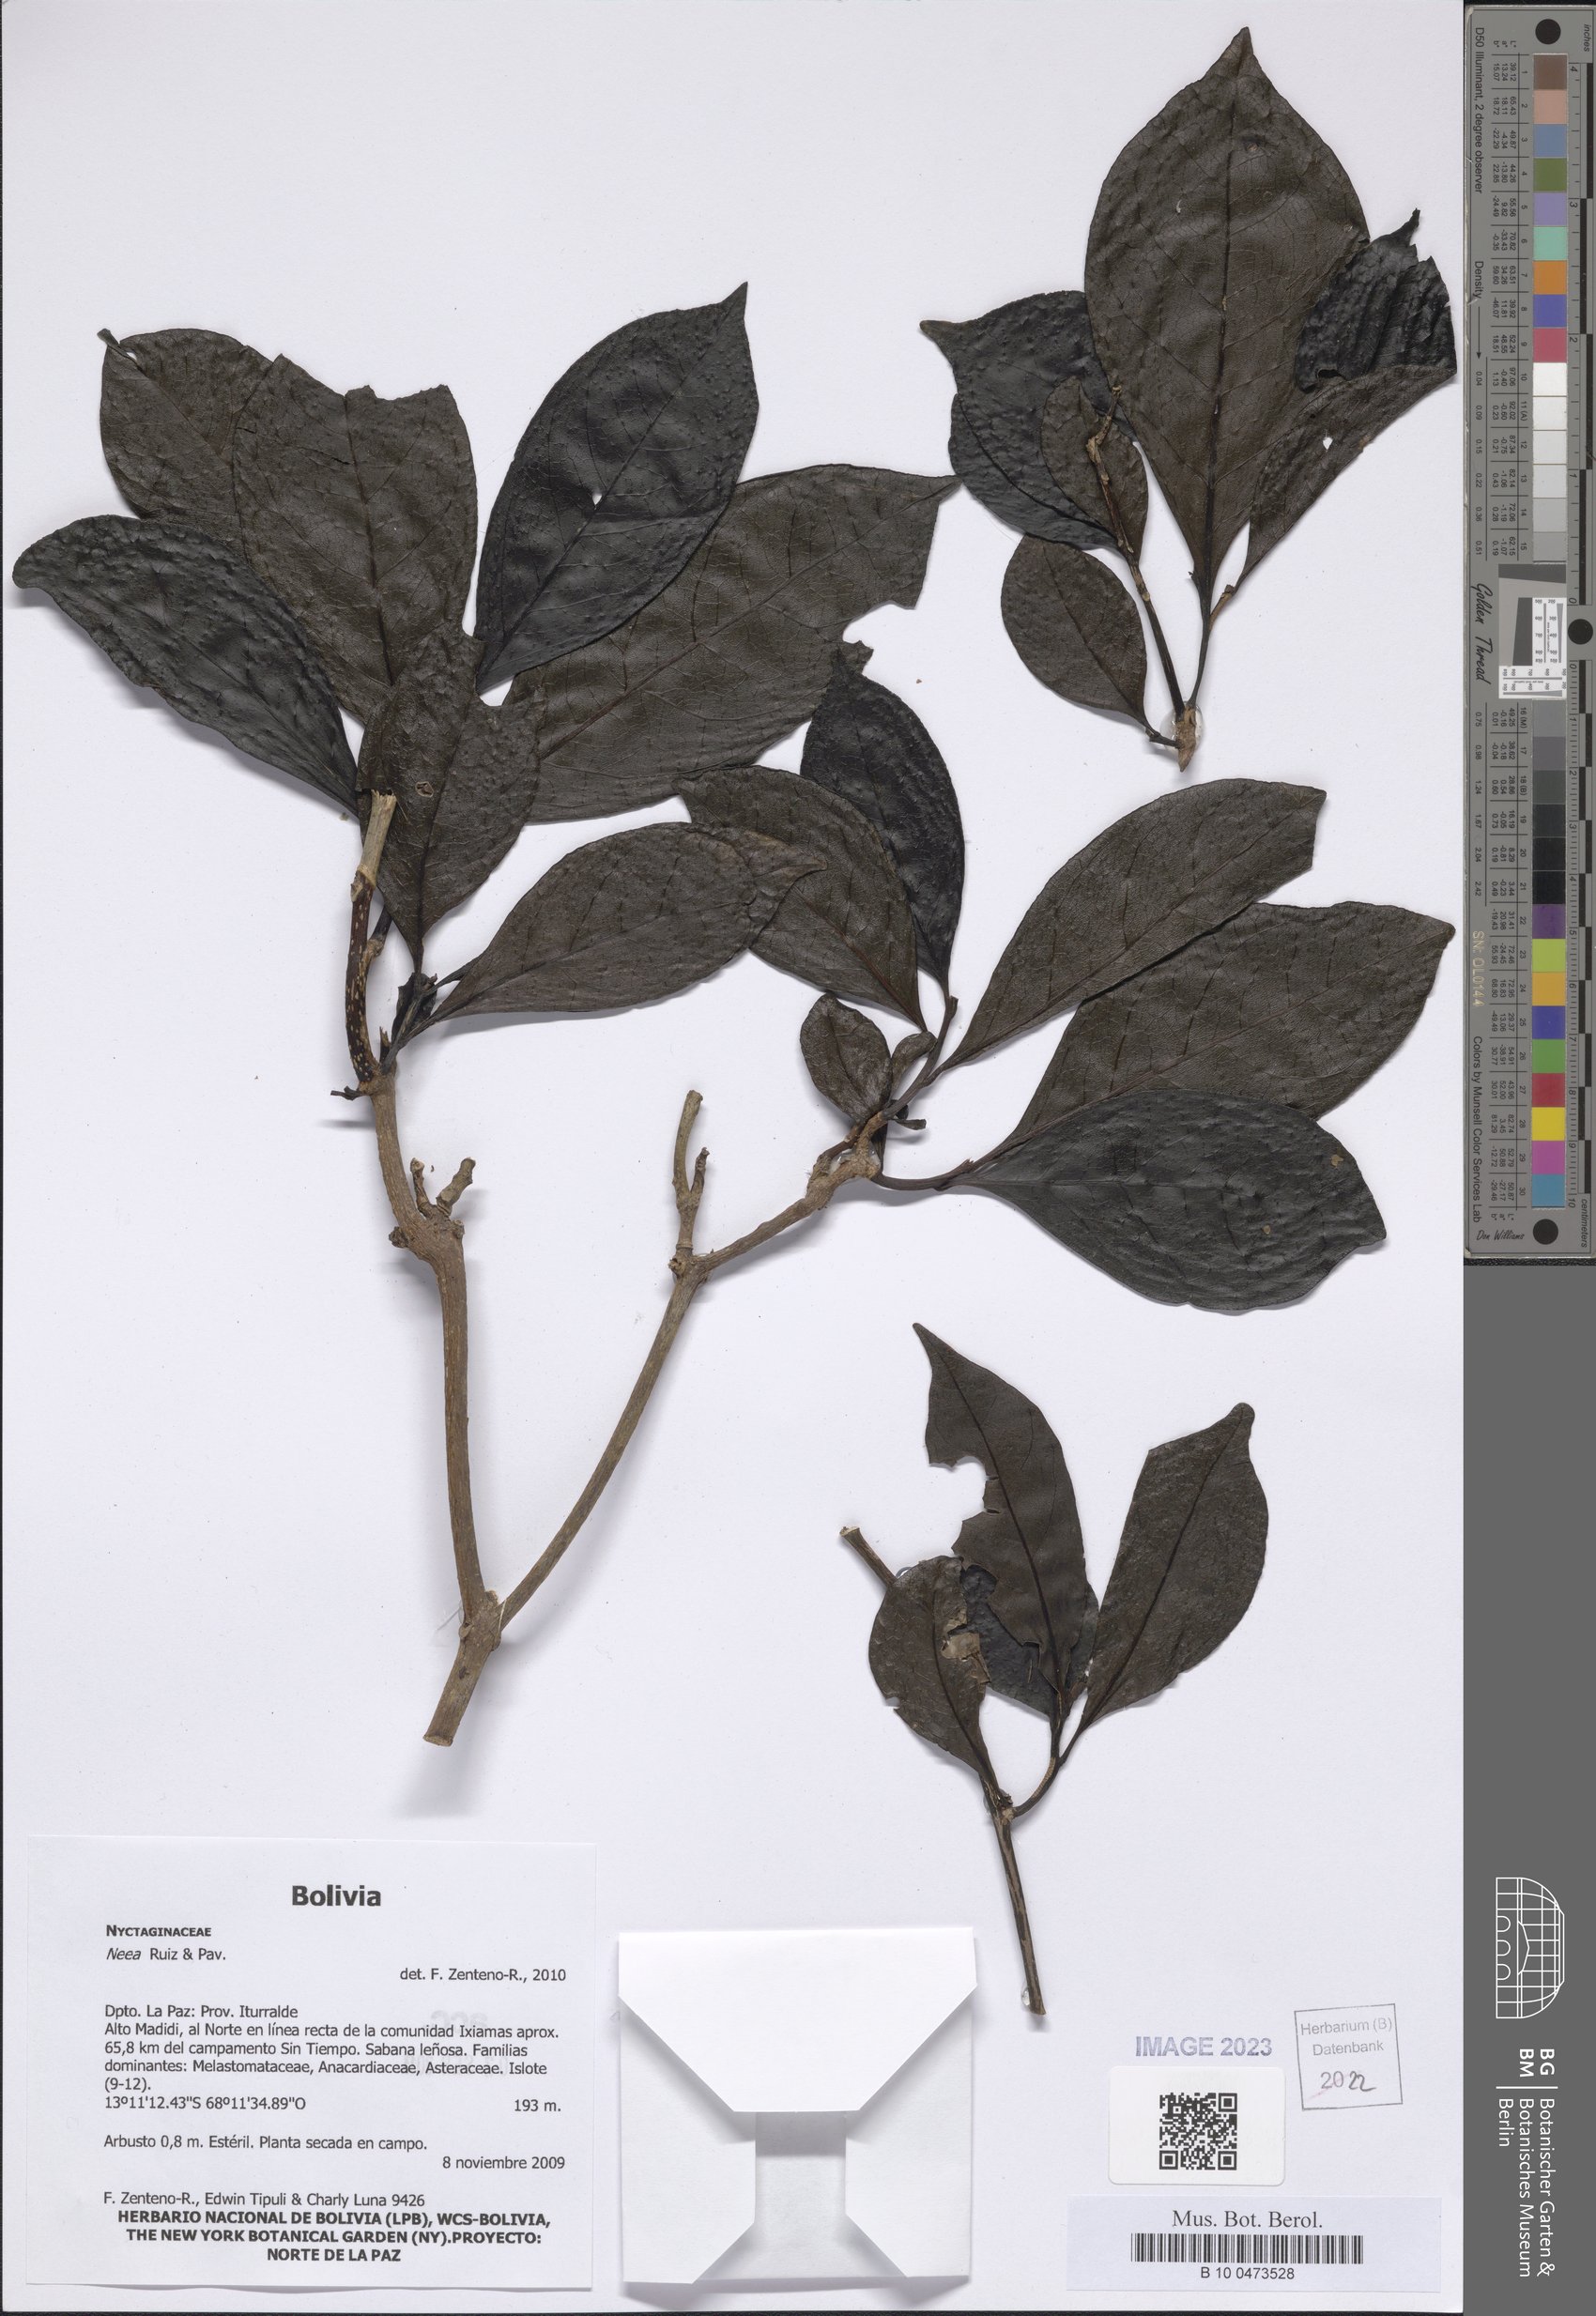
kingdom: Plantae
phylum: Tracheophyta
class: Magnoliopsida
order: Caryophyllales
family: Nyctaginaceae
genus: Neea
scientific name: Neea
